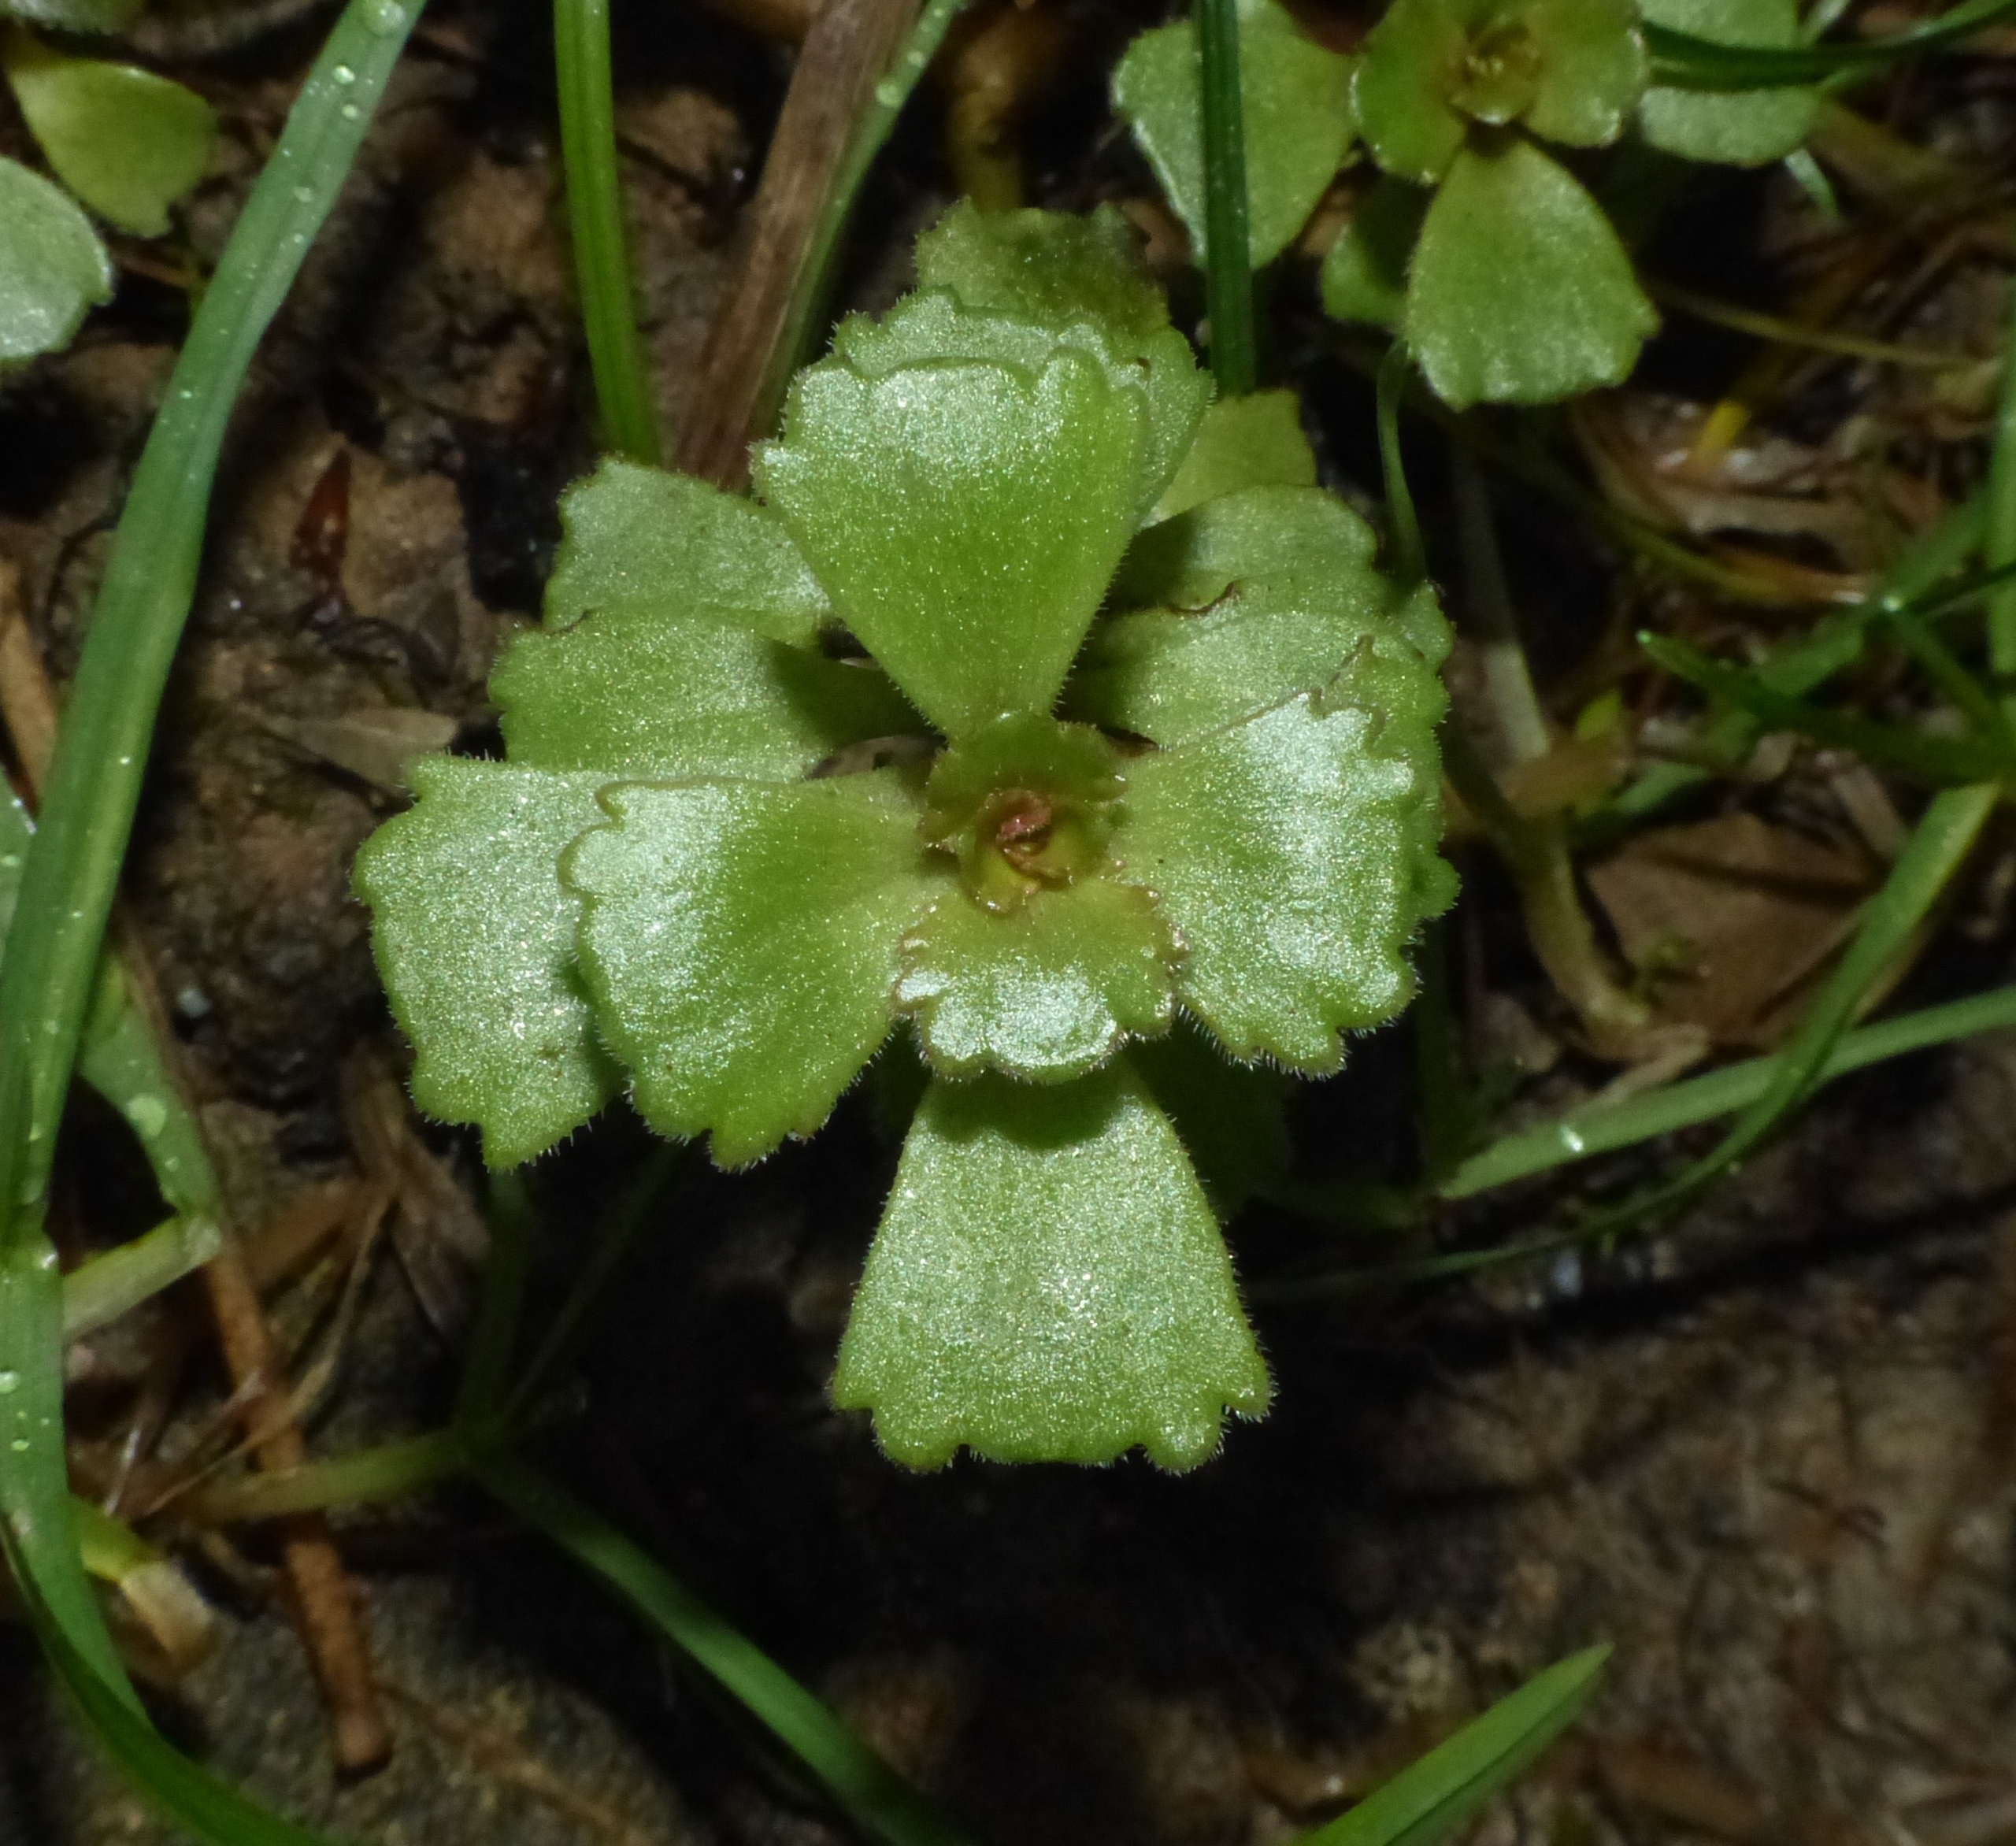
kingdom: Plantae
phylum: Tracheophyta
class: Magnoliopsida
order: Saxifragales
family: Crassulaceae
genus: Phedimus
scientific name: Phedimus spurius
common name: Rød stenurt
